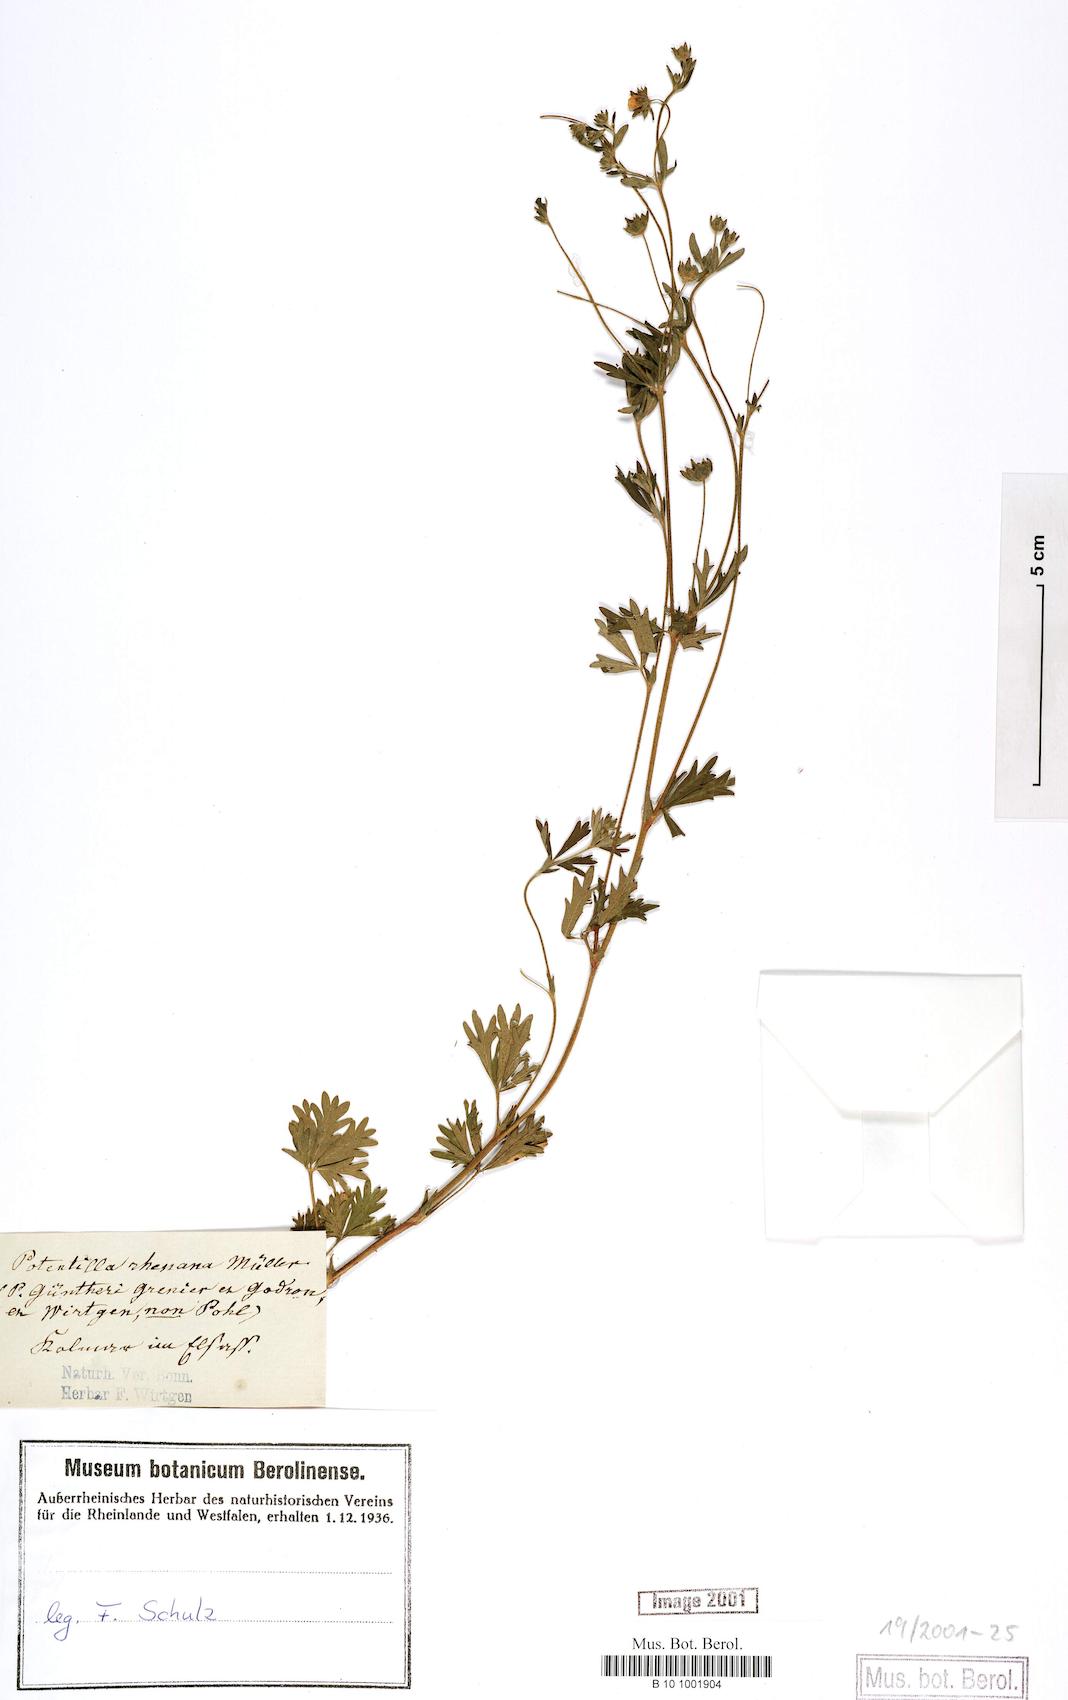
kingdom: Plantae
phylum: Tracheophyta
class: Magnoliopsida
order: Rosales
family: Rosaceae
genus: Potentilla
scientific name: Potentilla rhenana
